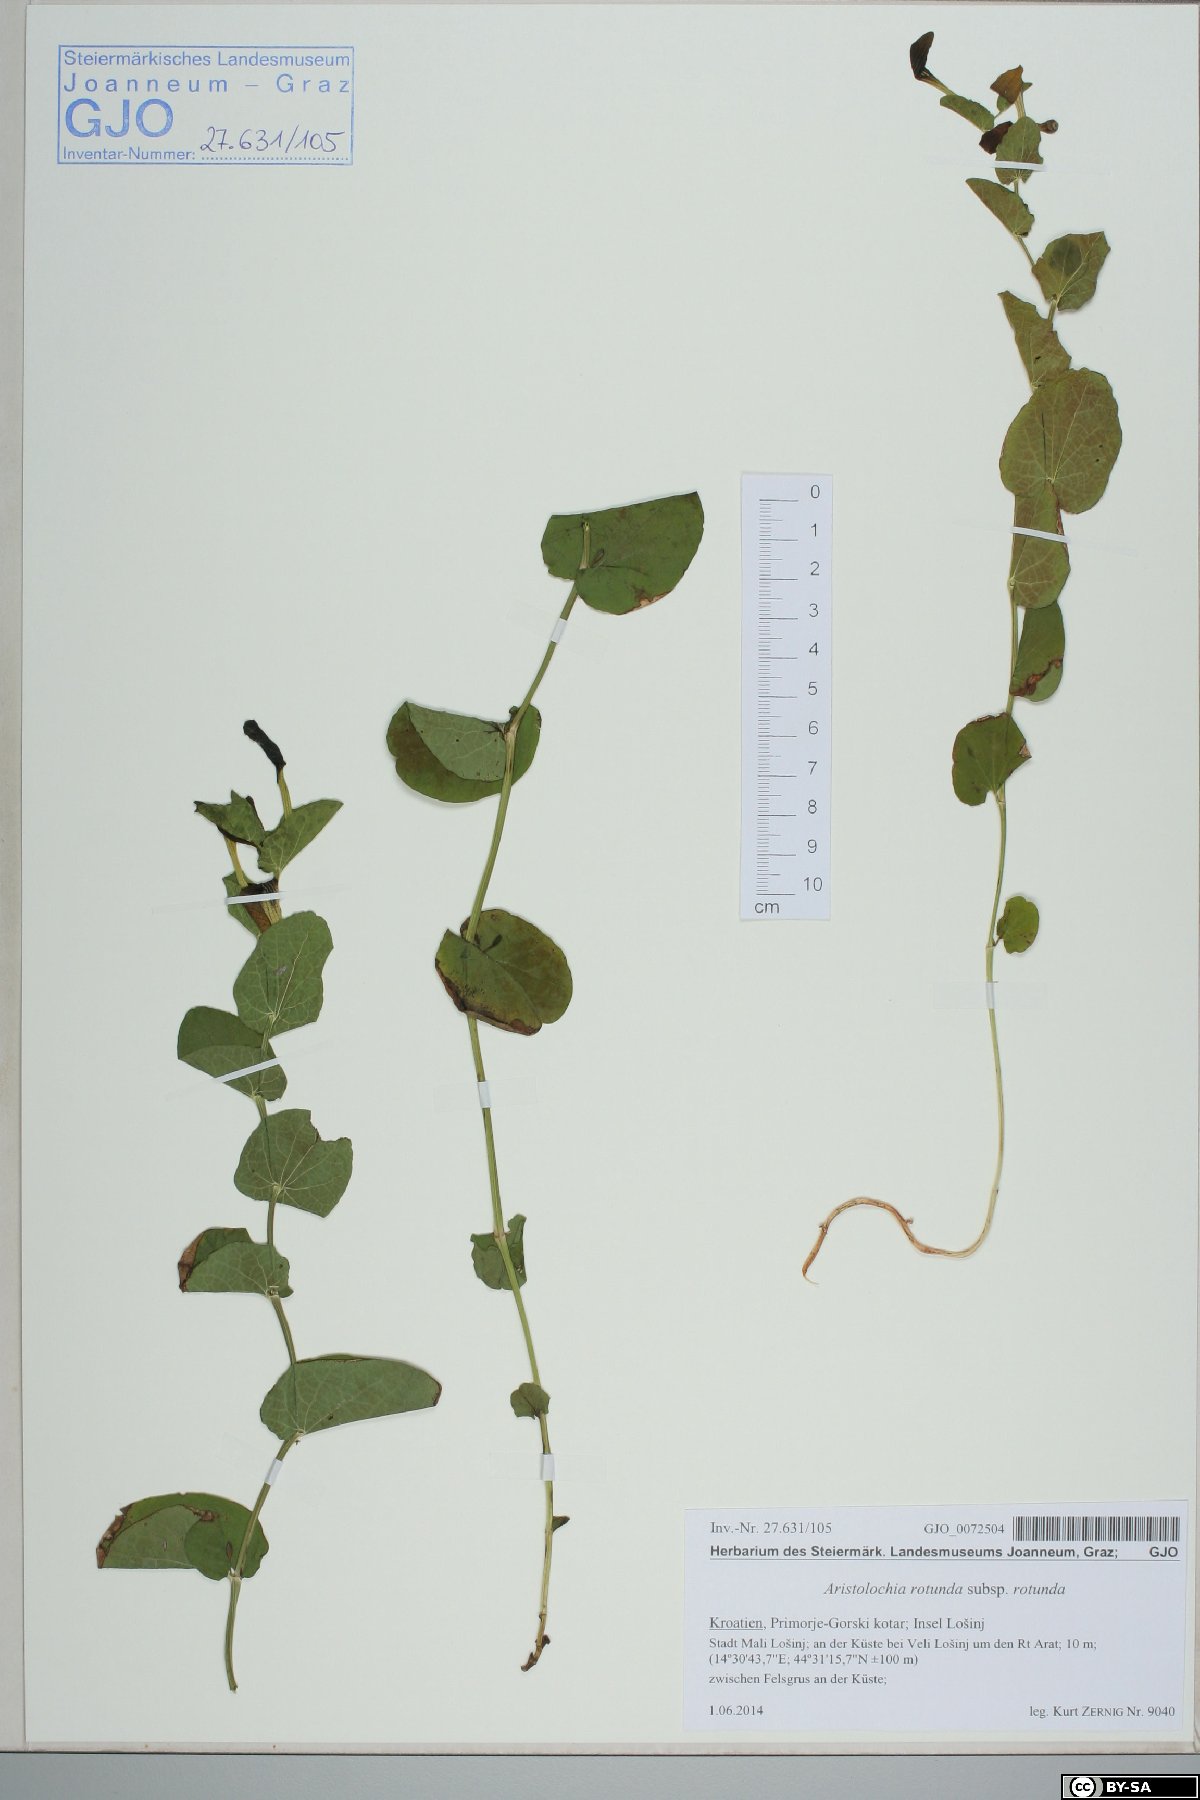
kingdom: Plantae
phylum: Tracheophyta
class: Magnoliopsida
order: Piperales
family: Aristolochiaceae
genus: Aristolochia
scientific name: Aristolochia rotunda
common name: Smearwort
